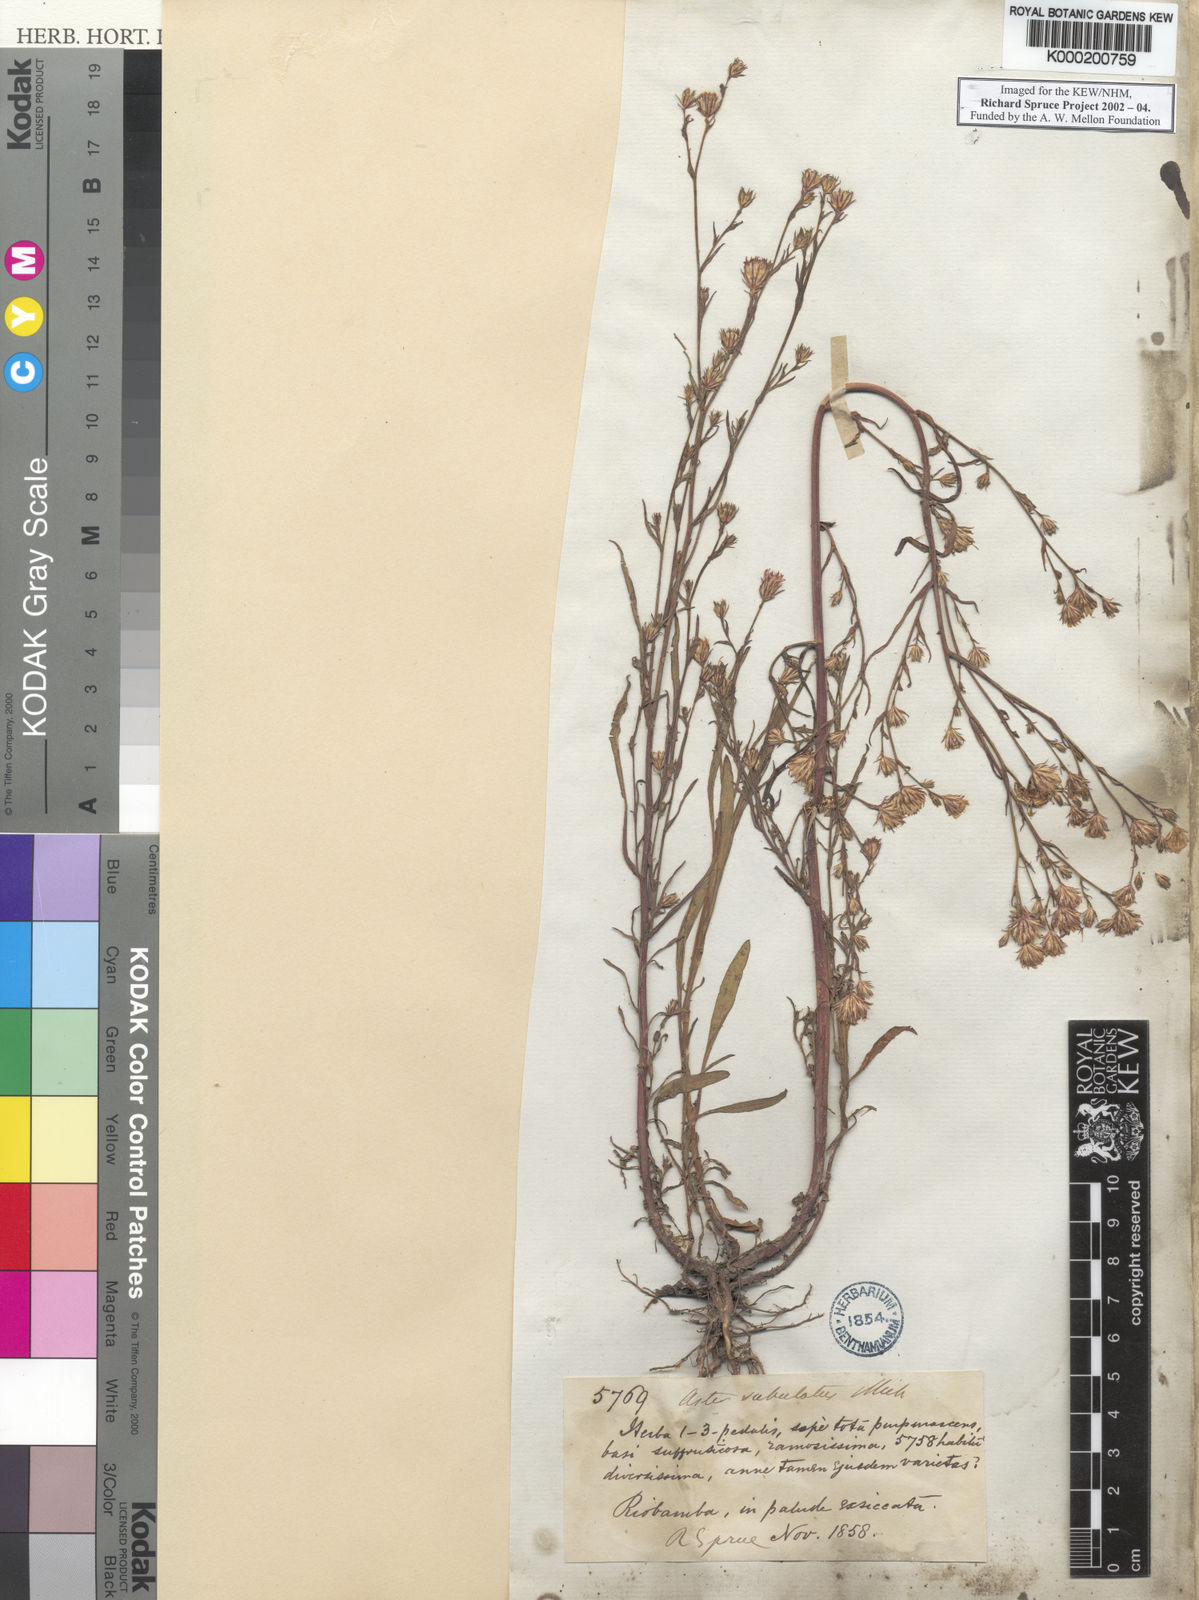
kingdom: Plantae
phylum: Tracheophyta
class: Magnoliopsida
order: Asterales
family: Asteraceae
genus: Symphyotrichum
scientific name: Symphyotrichum squamatum
